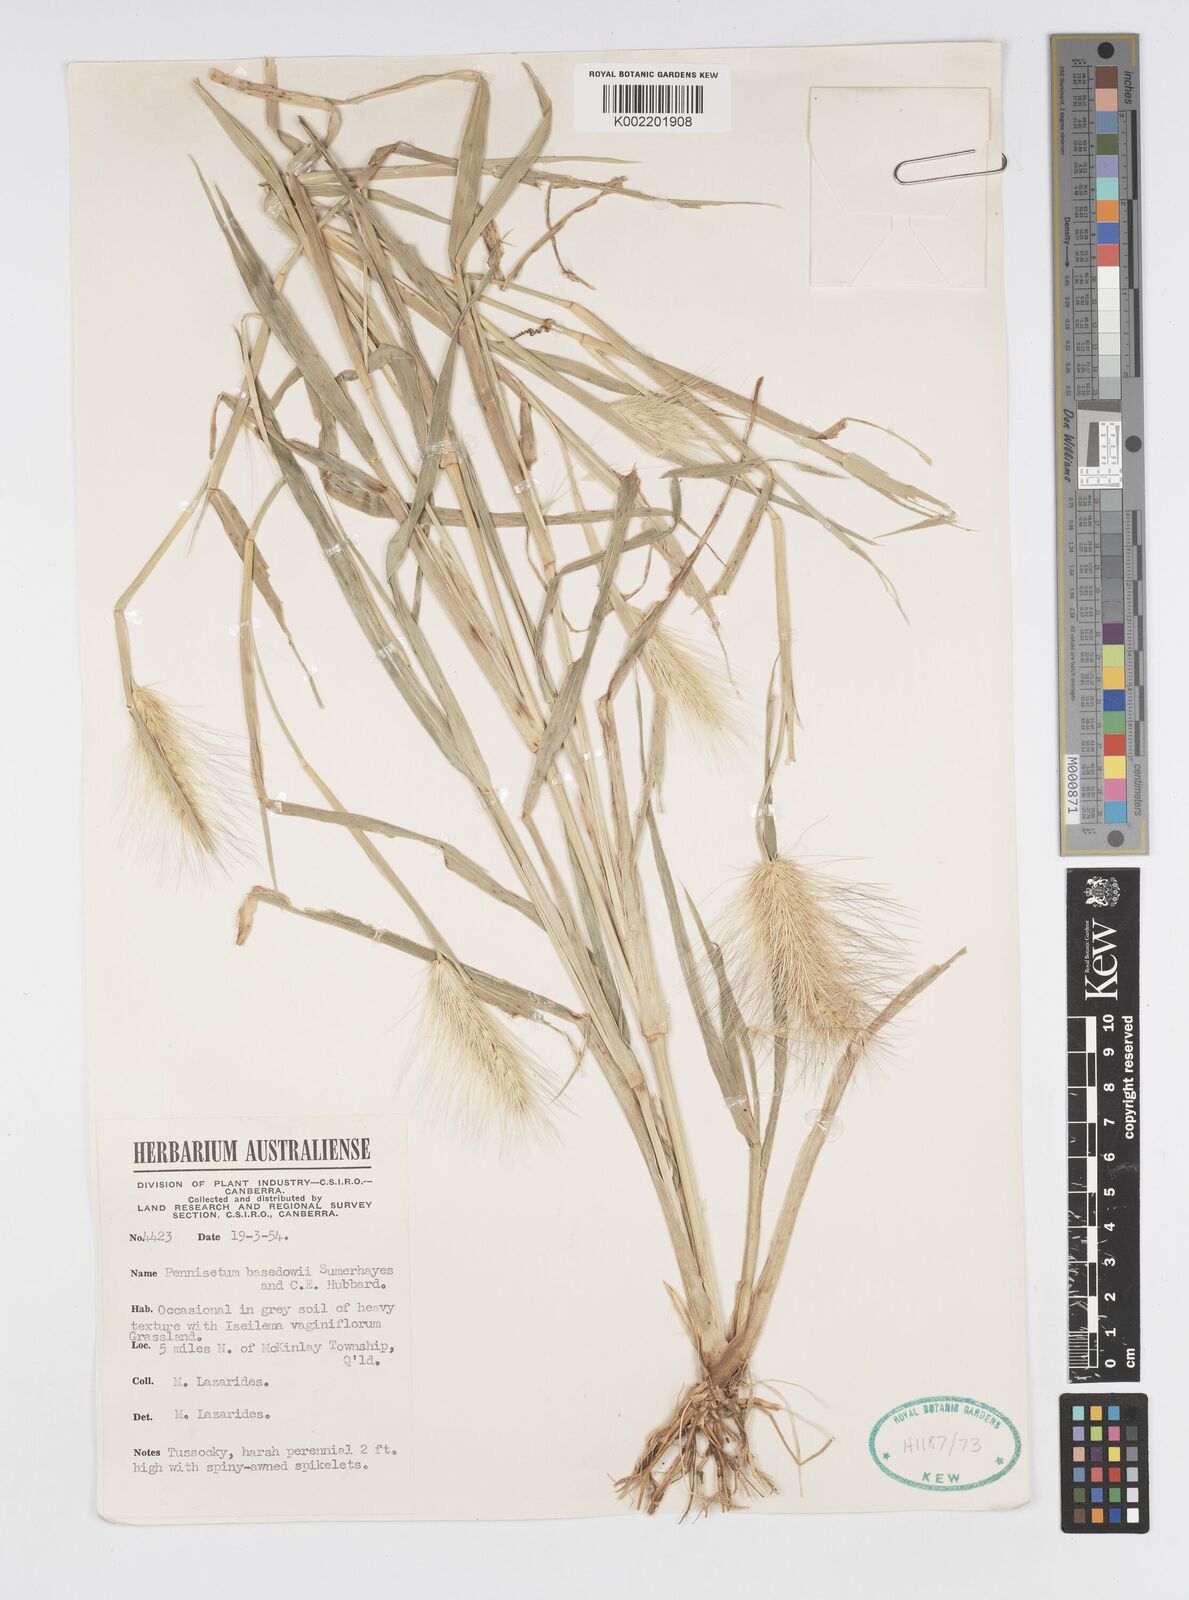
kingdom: Plantae
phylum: Tracheophyta
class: Liliopsida
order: Poales
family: Poaceae
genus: Cenchrus
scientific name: Cenchrus basedowii
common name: Asbestos grass
